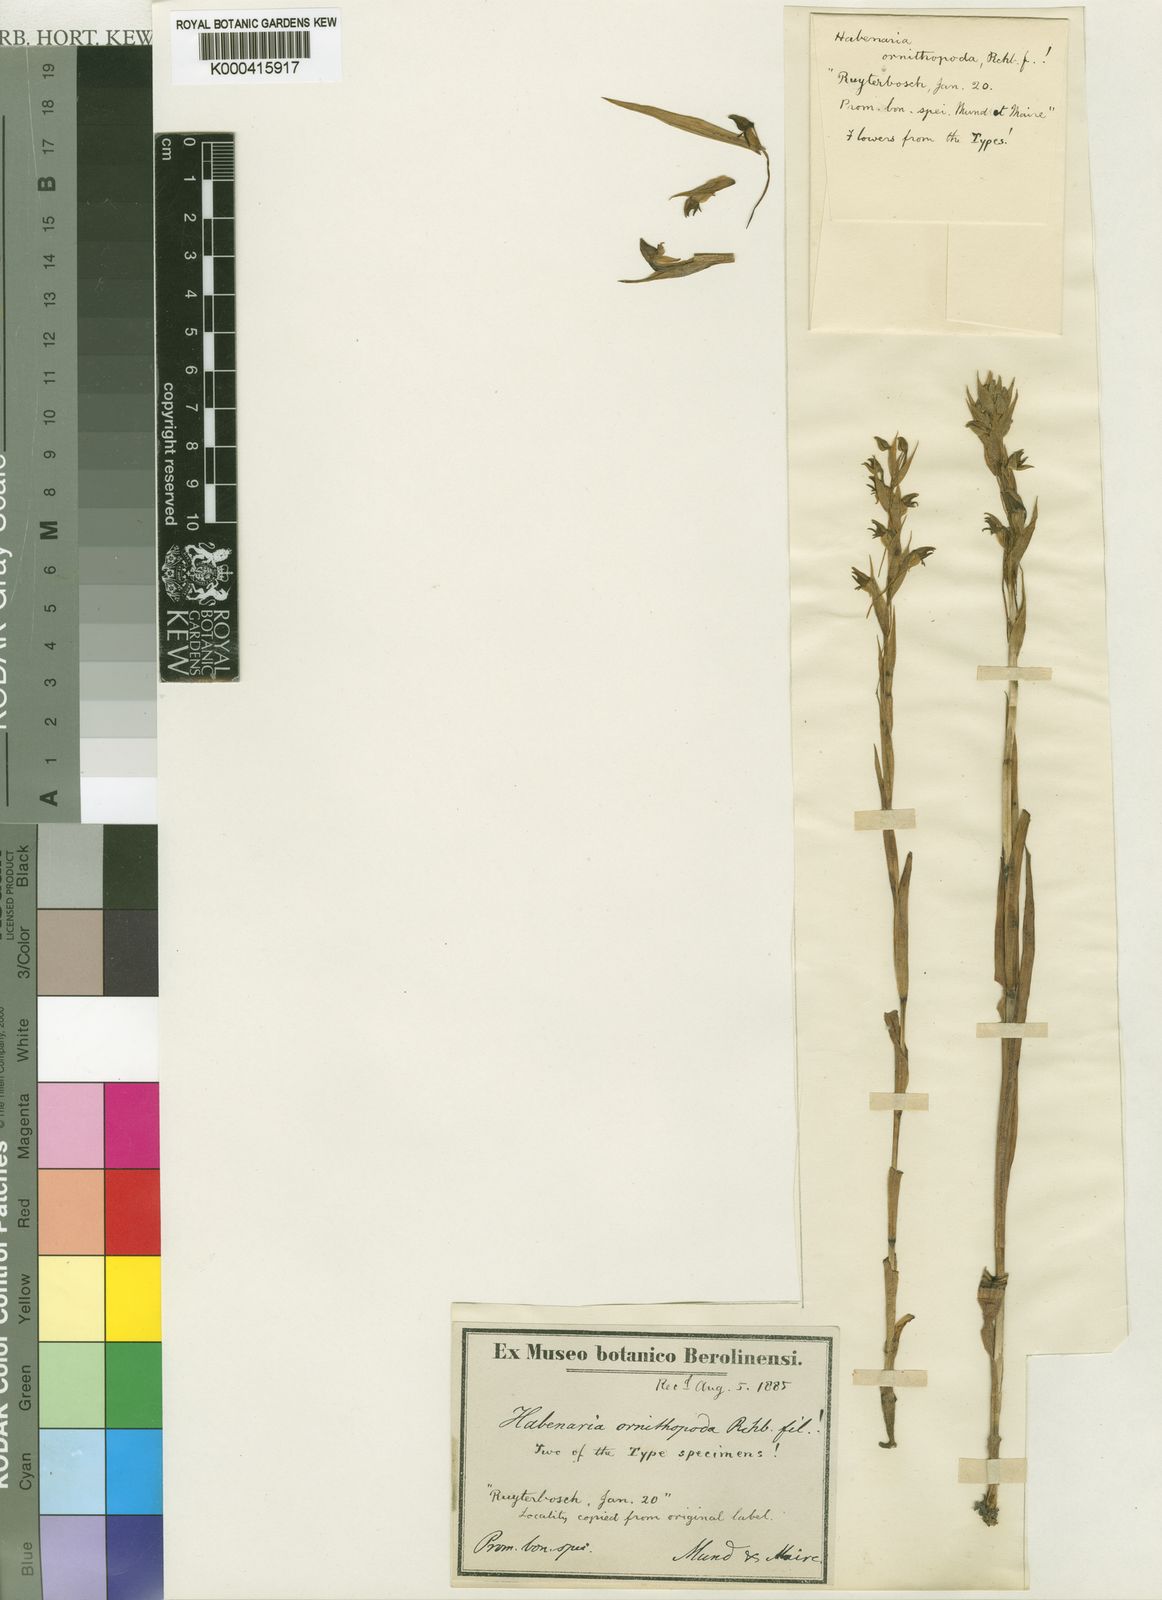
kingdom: Plantae
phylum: Tracheophyta
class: Liliopsida
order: Asparagales
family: Orchidaceae
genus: Habenaria
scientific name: Habenaria laevigata
